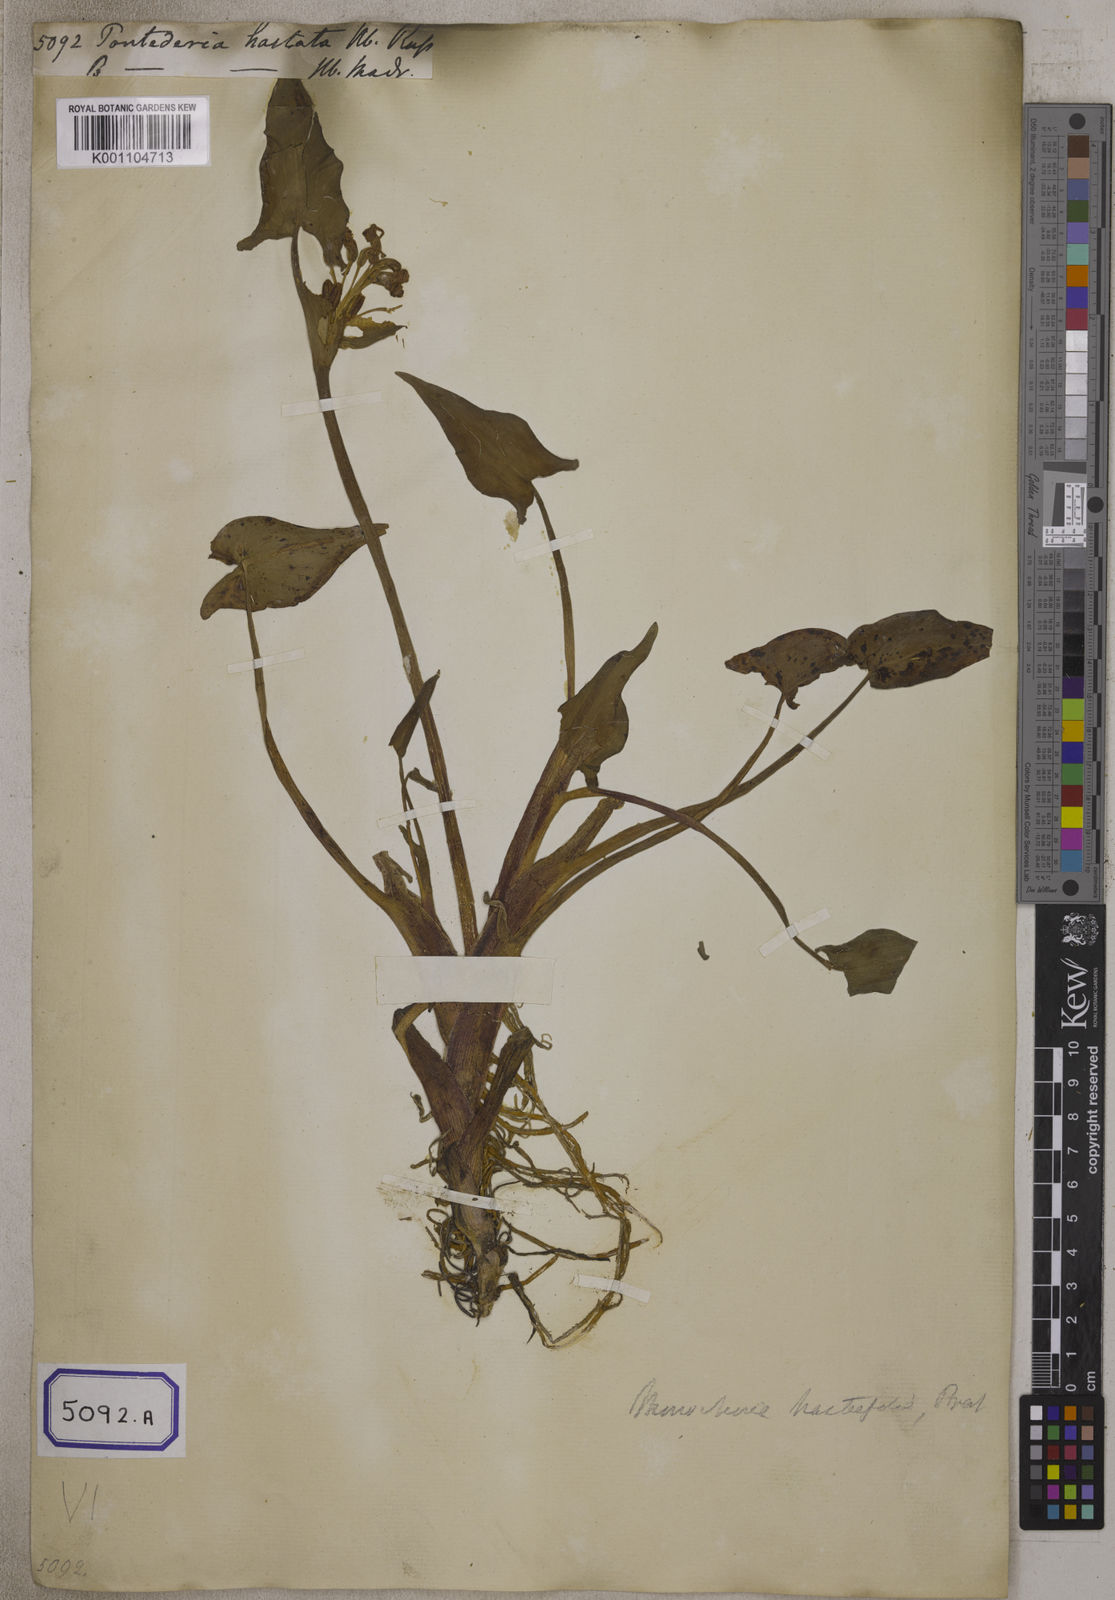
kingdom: Plantae
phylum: Tracheophyta
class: Liliopsida
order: Commelinales
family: Pontederiaceae
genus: Pontederia
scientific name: Pontederia hastata
